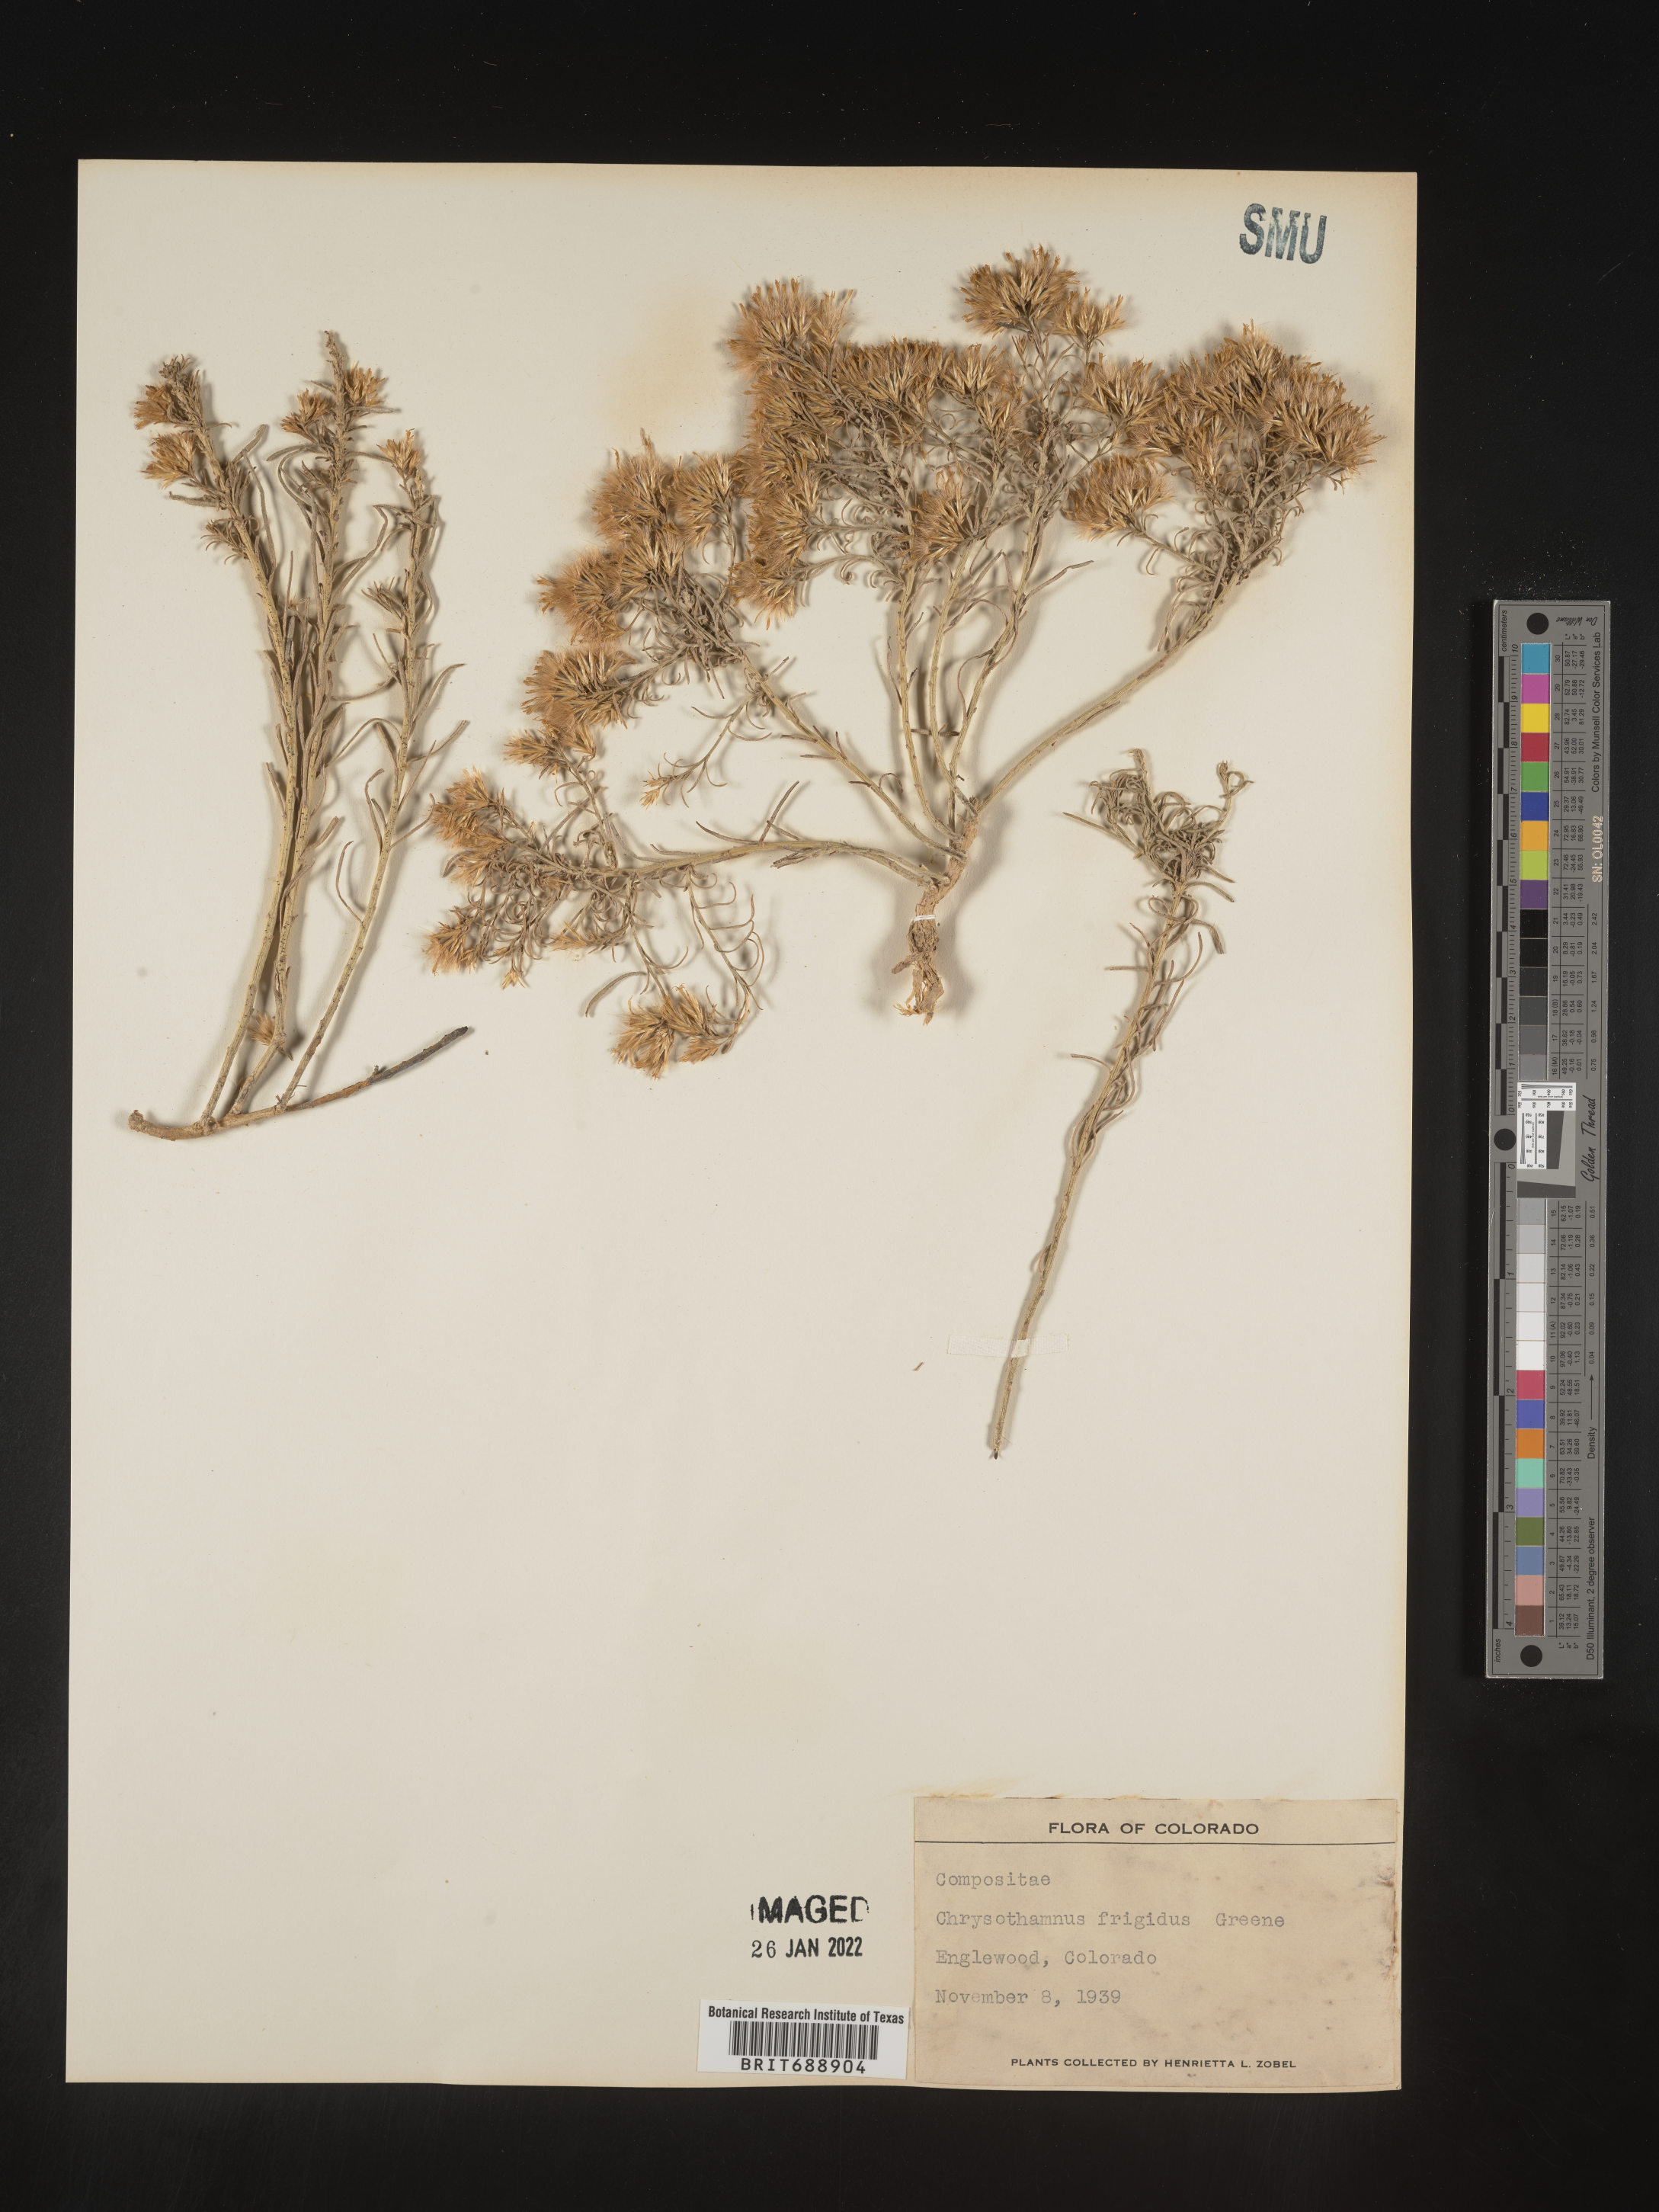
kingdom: Plantae
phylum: Tracheophyta
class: Magnoliopsida
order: Asterales
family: Asteraceae
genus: Chrysothamnus
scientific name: Chrysothamnus
